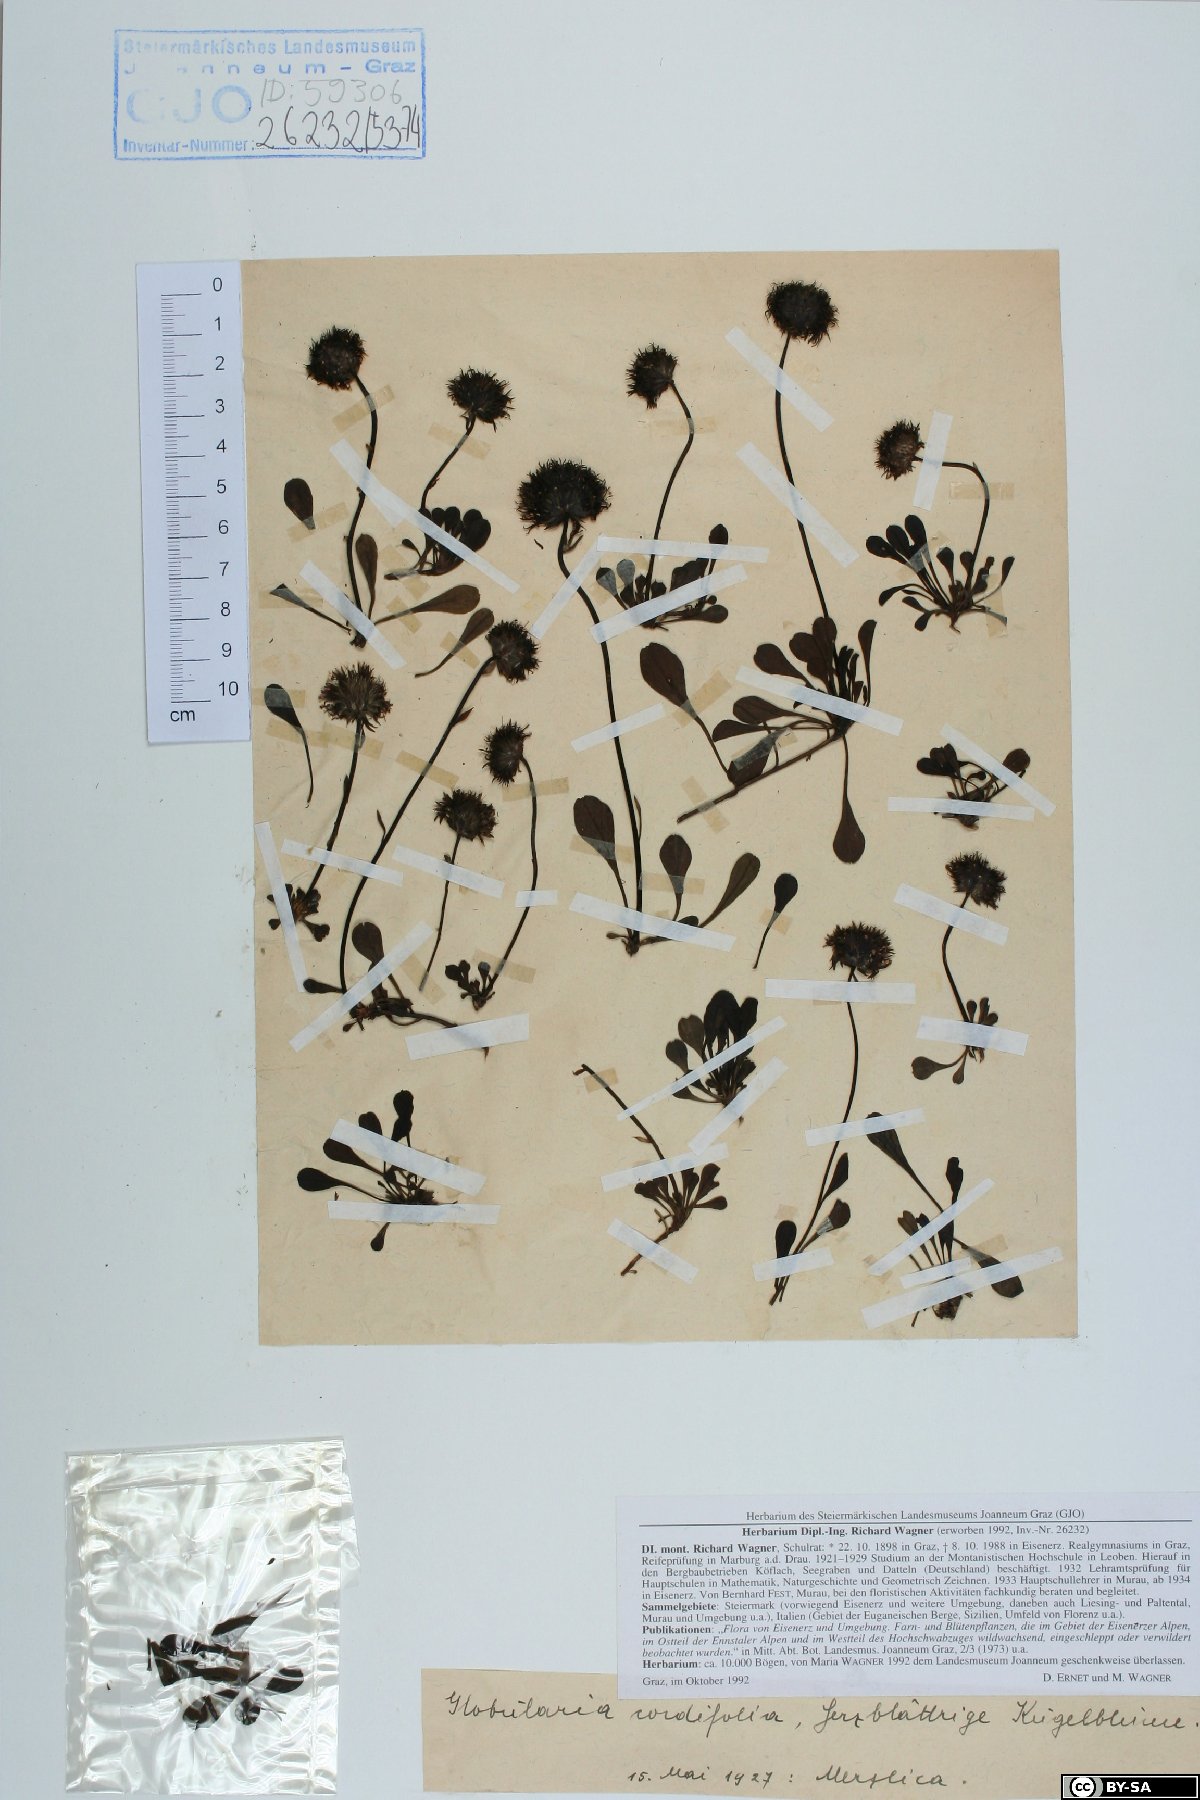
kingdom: Plantae
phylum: Tracheophyta
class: Magnoliopsida
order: Lamiales
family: Plantaginaceae
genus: Globularia
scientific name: Globularia cordifolia
